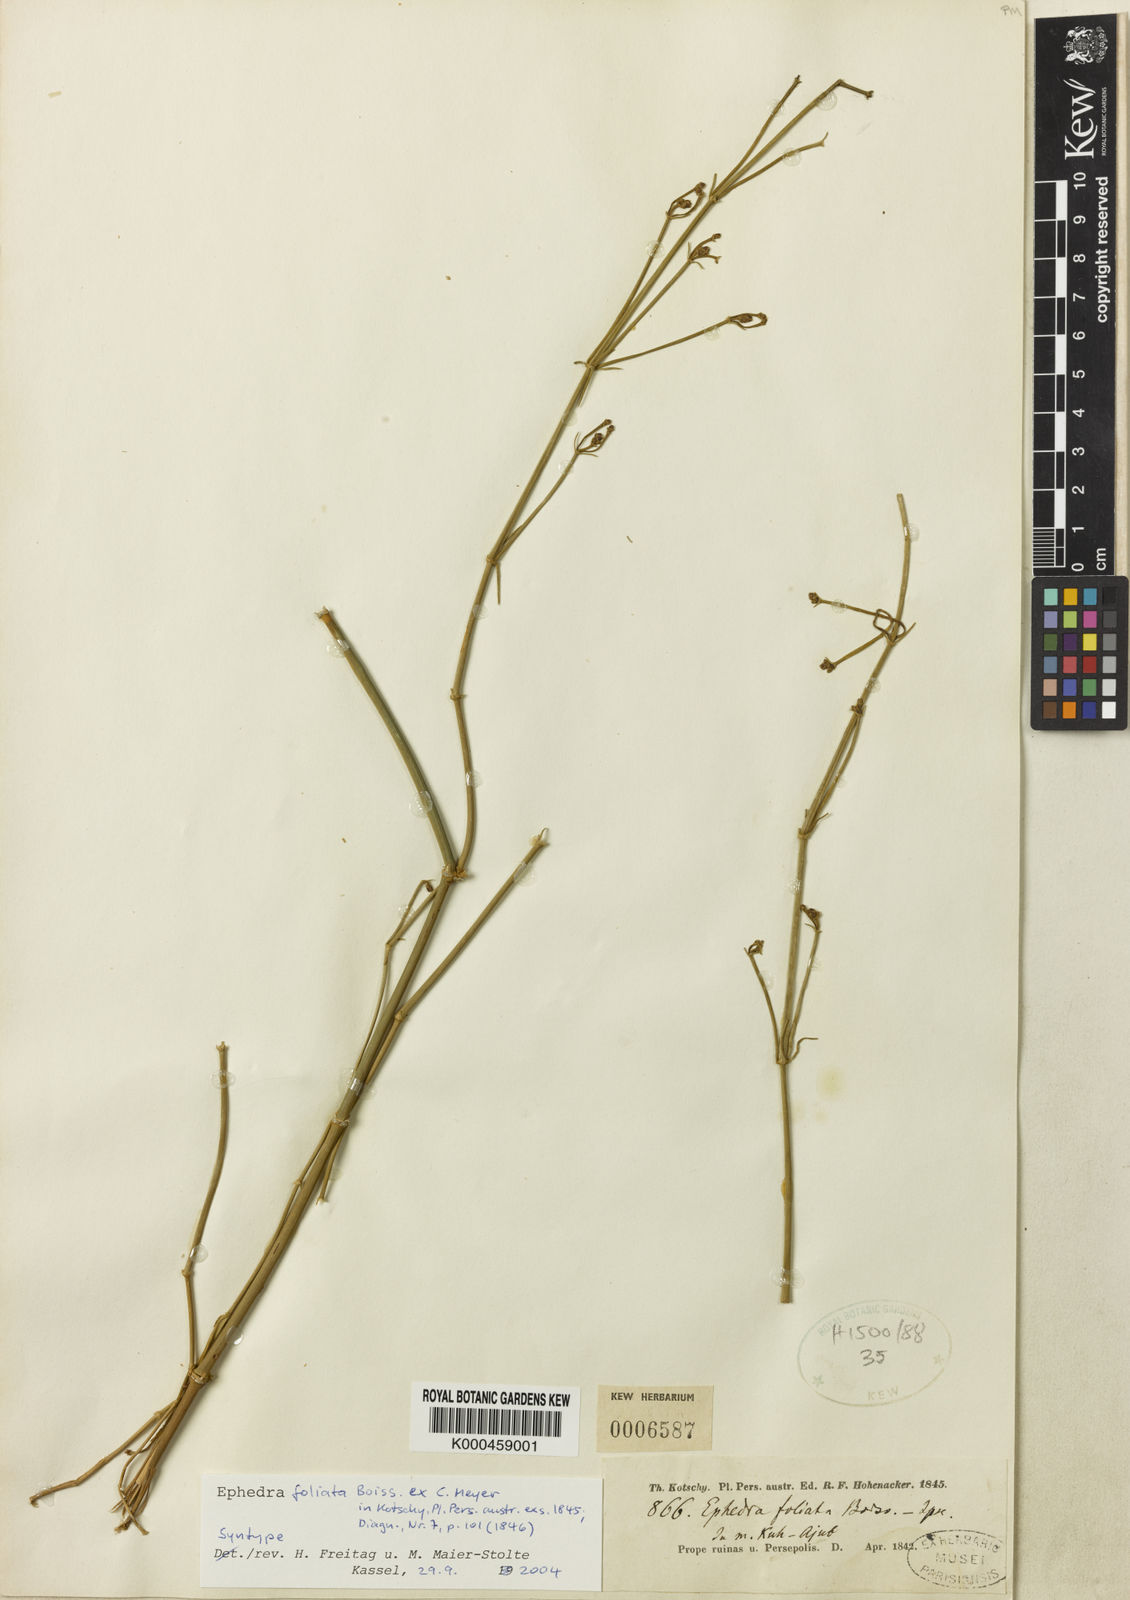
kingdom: Plantae
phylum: Tracheophyta
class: Gnetopsida
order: Ephedrales
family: Ephedraceae
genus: Ephedra
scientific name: Ephedra ciliata
